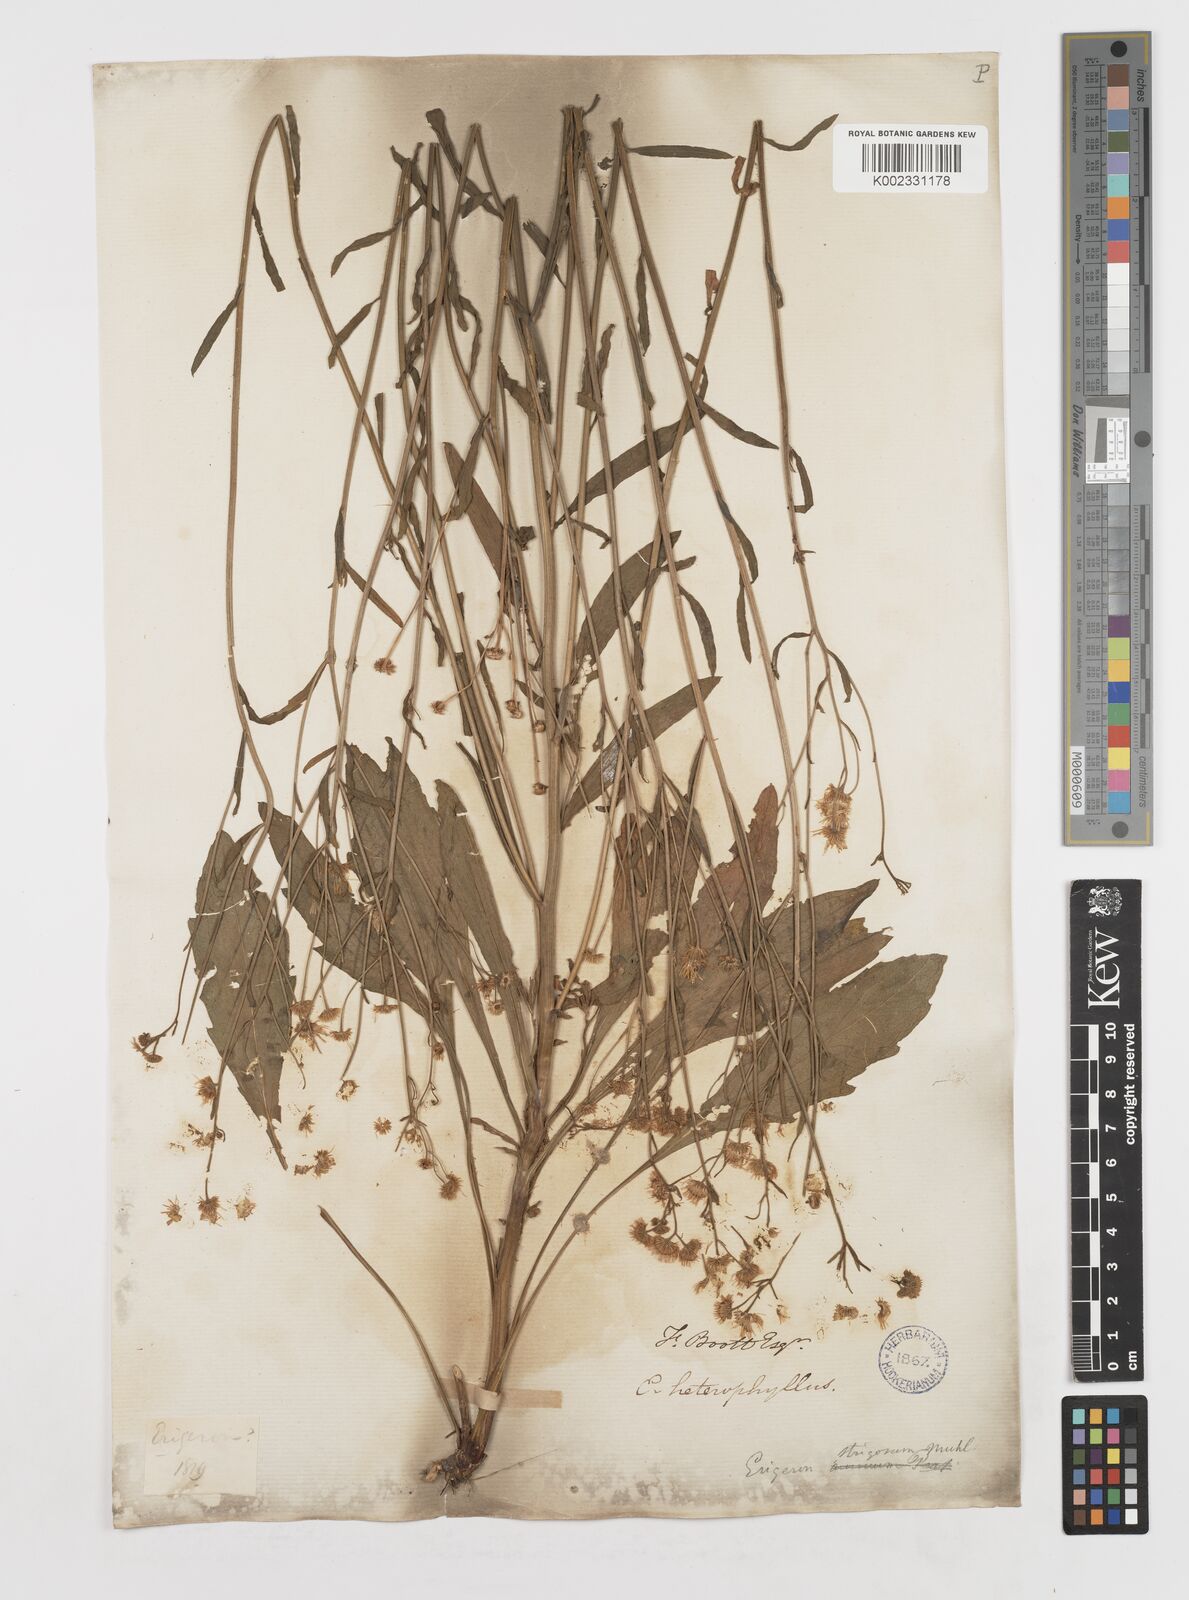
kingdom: Plantae
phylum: Tracheophyta
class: Magnoliopsida
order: Asterales
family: Asteraceae
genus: Erigeron
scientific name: Erigeron strigosus
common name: Common eastern fleabane
